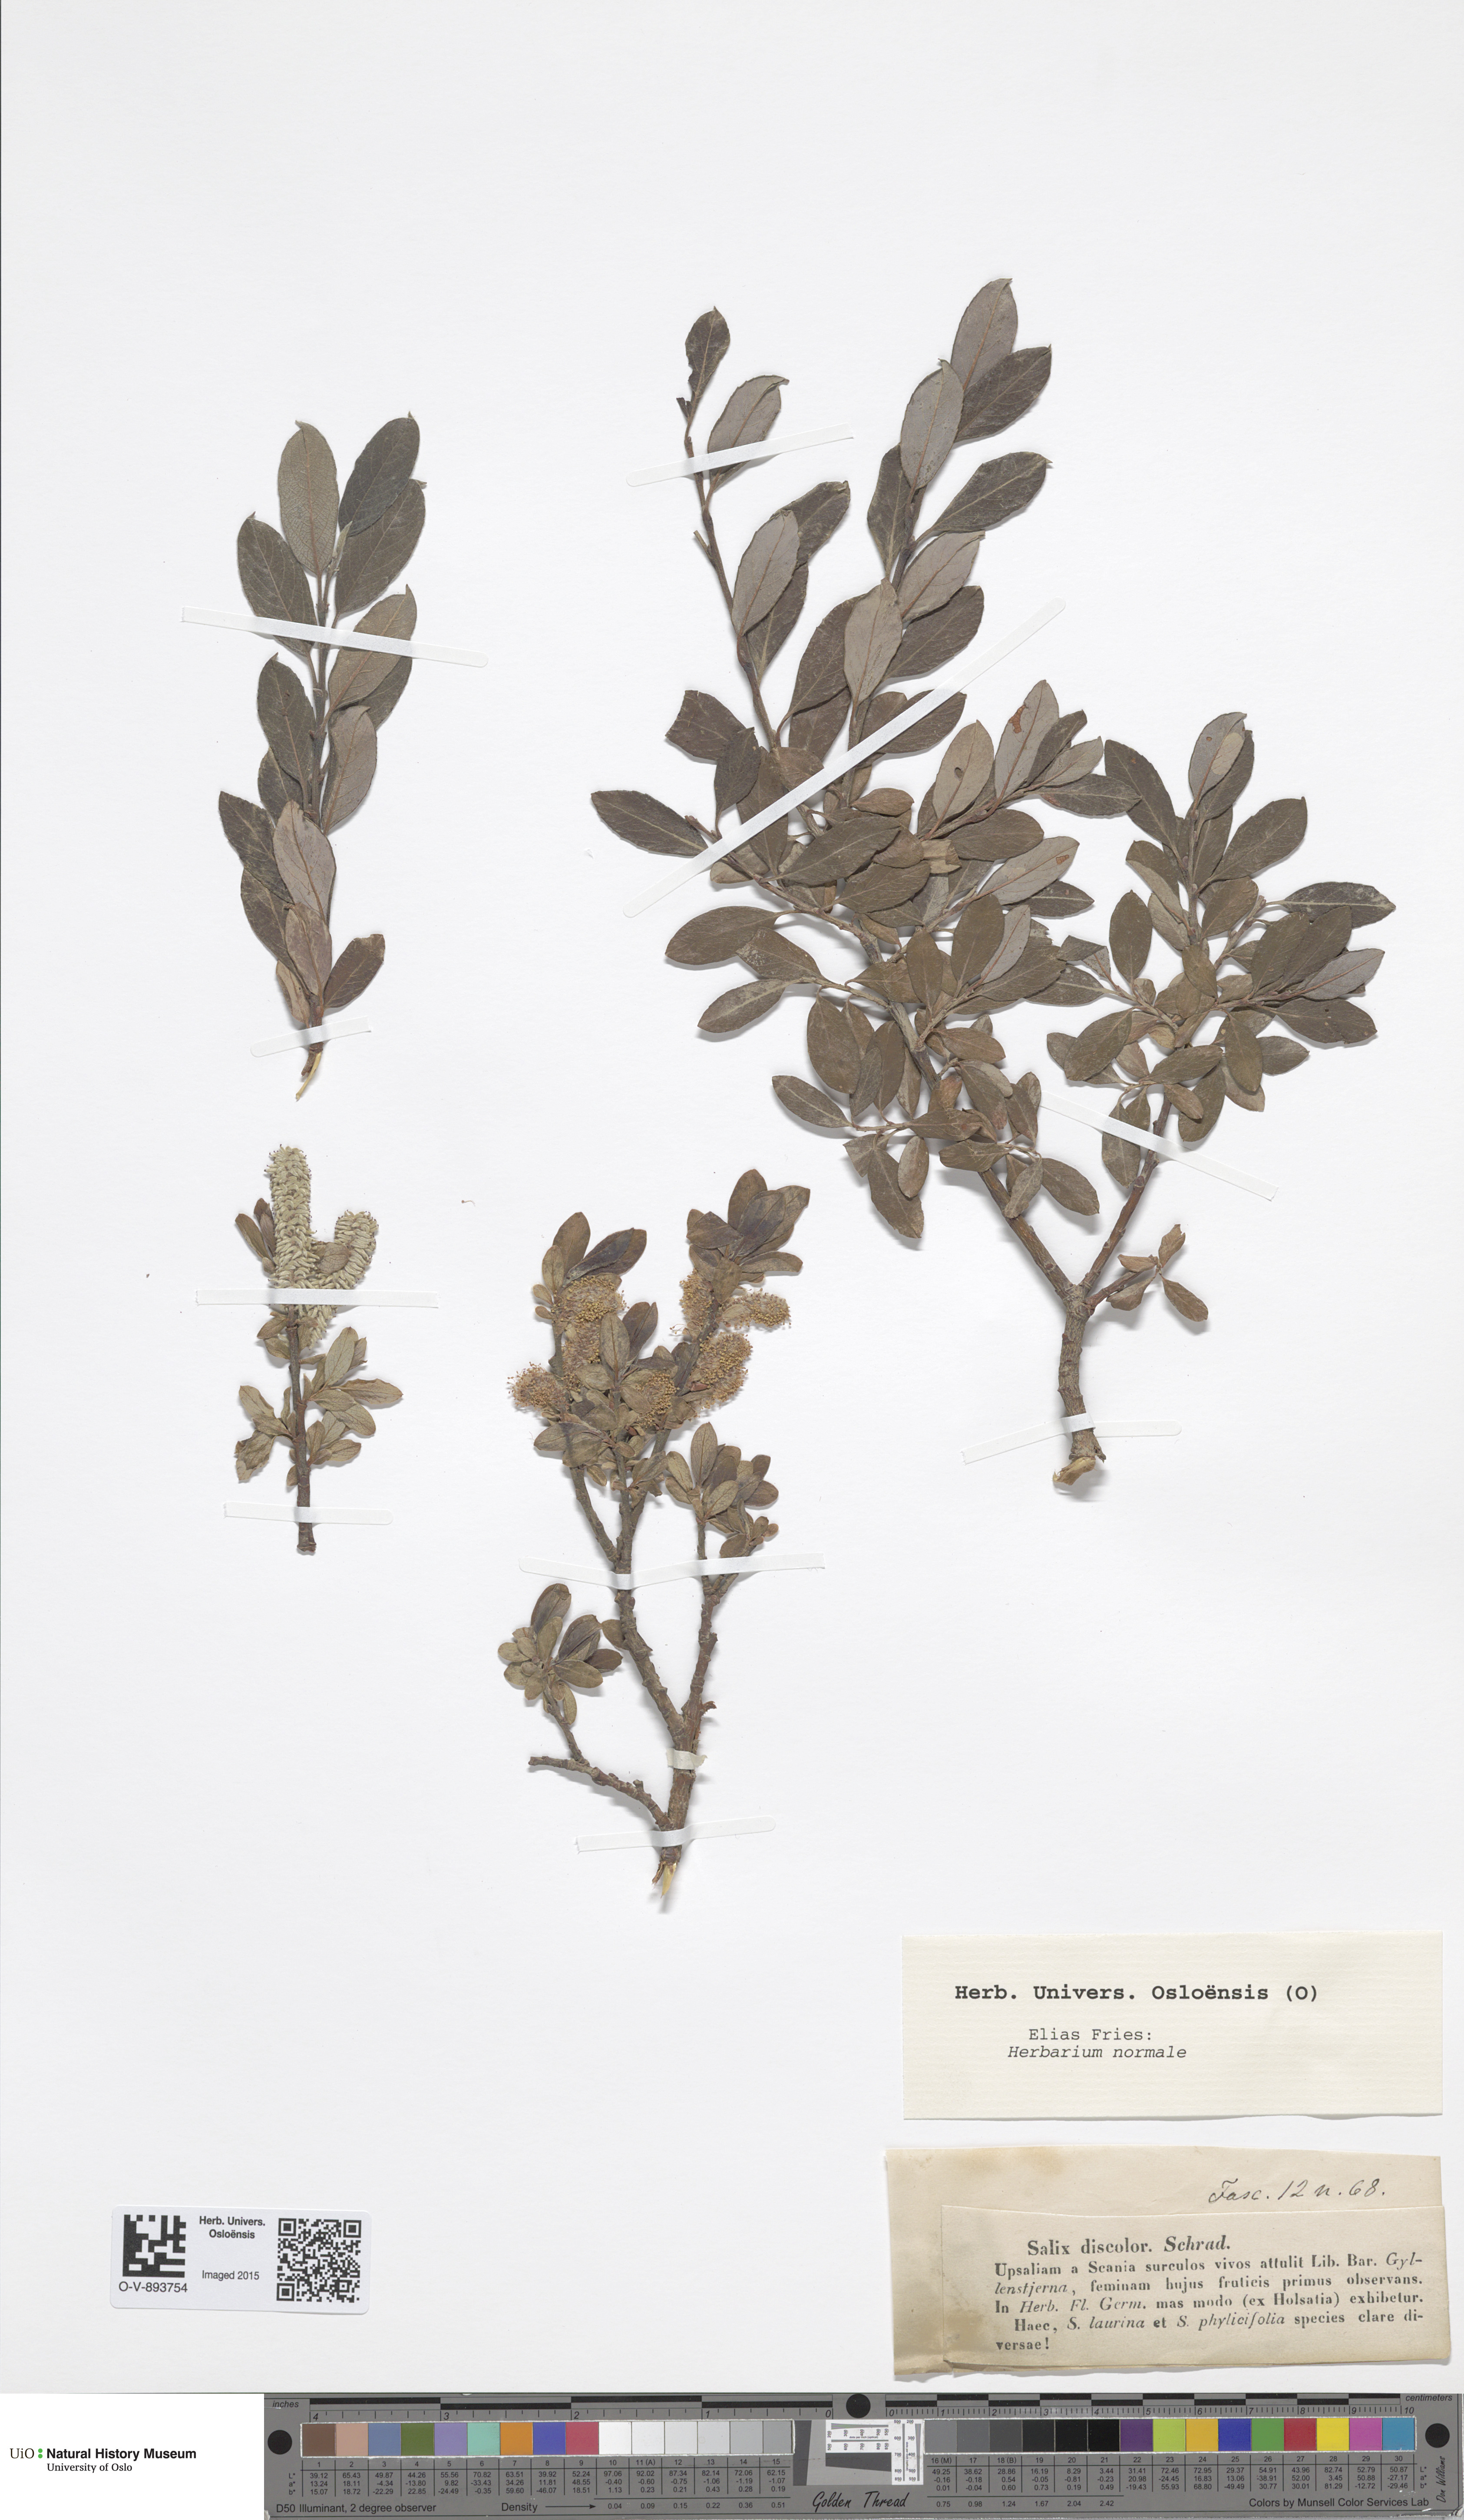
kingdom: Plantae
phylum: Tracheophyta
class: Magnoliopsida
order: Malpighiales
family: Salicaceae
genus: Salix
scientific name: Salix discolor
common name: Glaucous willow
